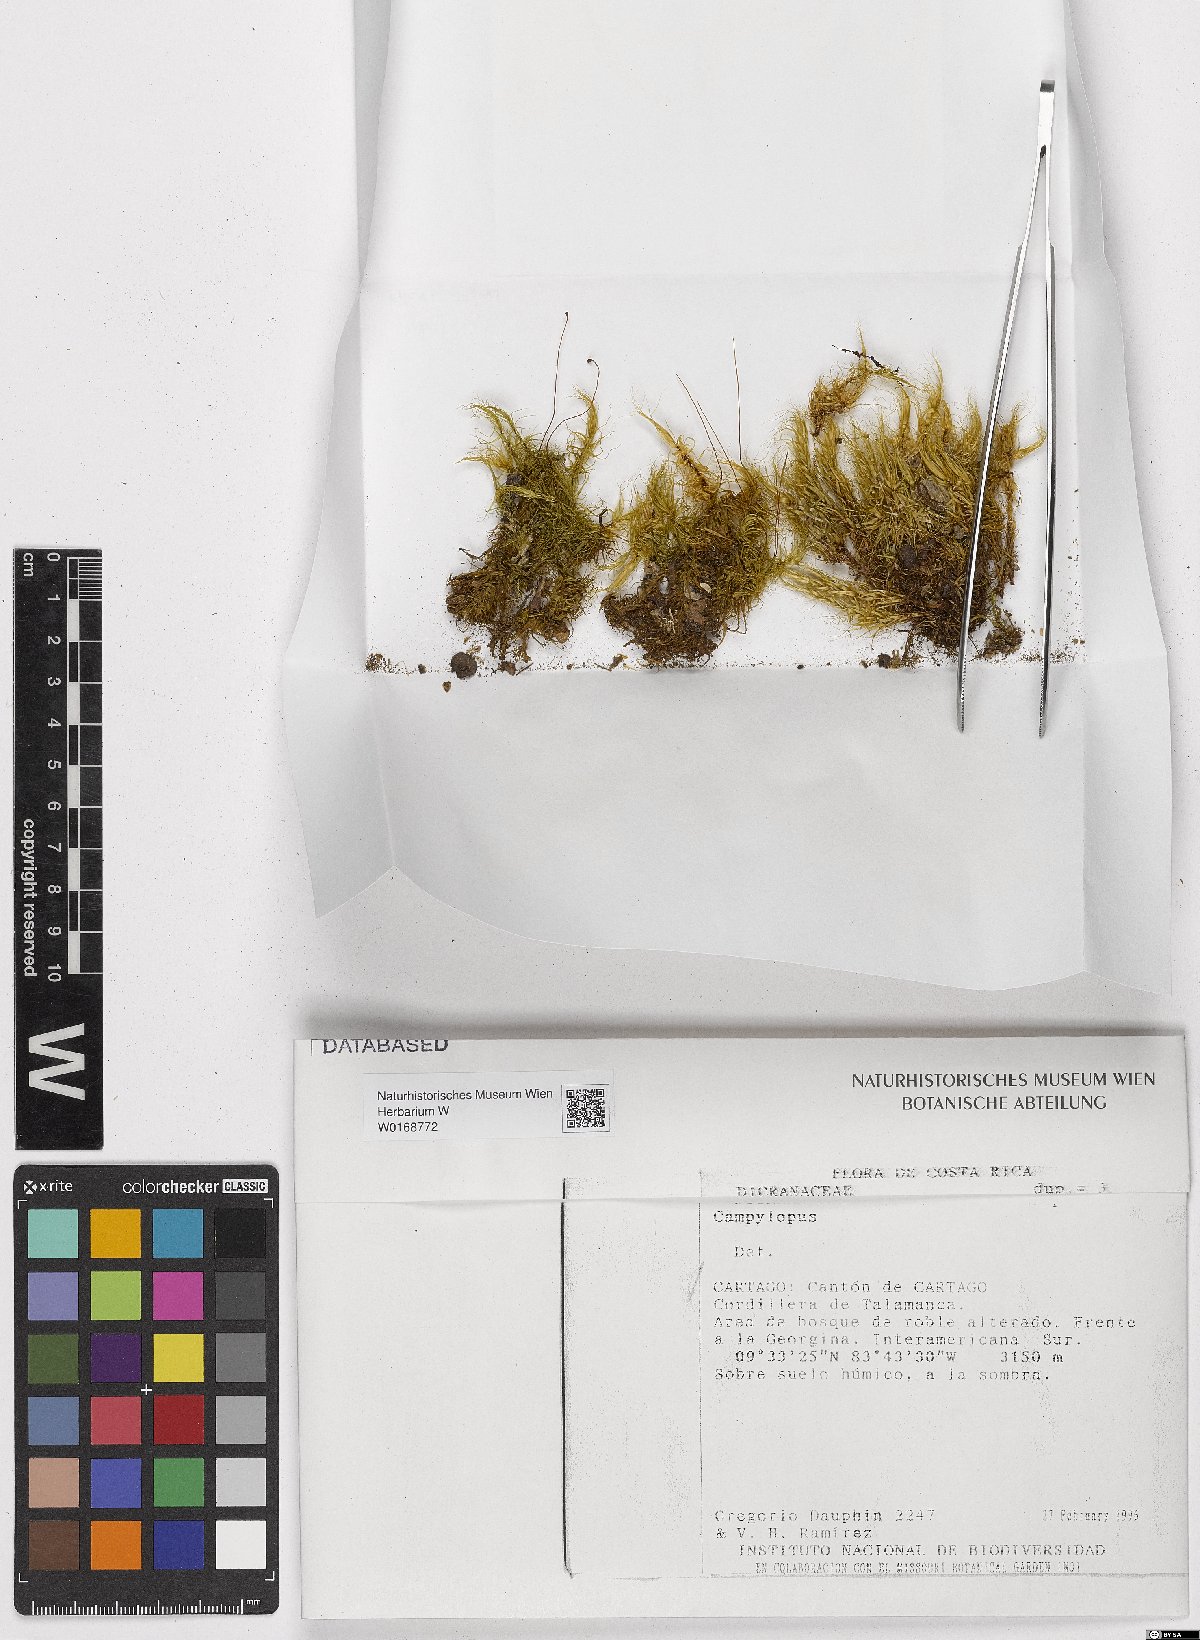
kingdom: Plantae
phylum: Bryophyta
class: Bryopsida
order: Dicranales
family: Leucobryaceae
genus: Campylopus
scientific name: Campylopus
